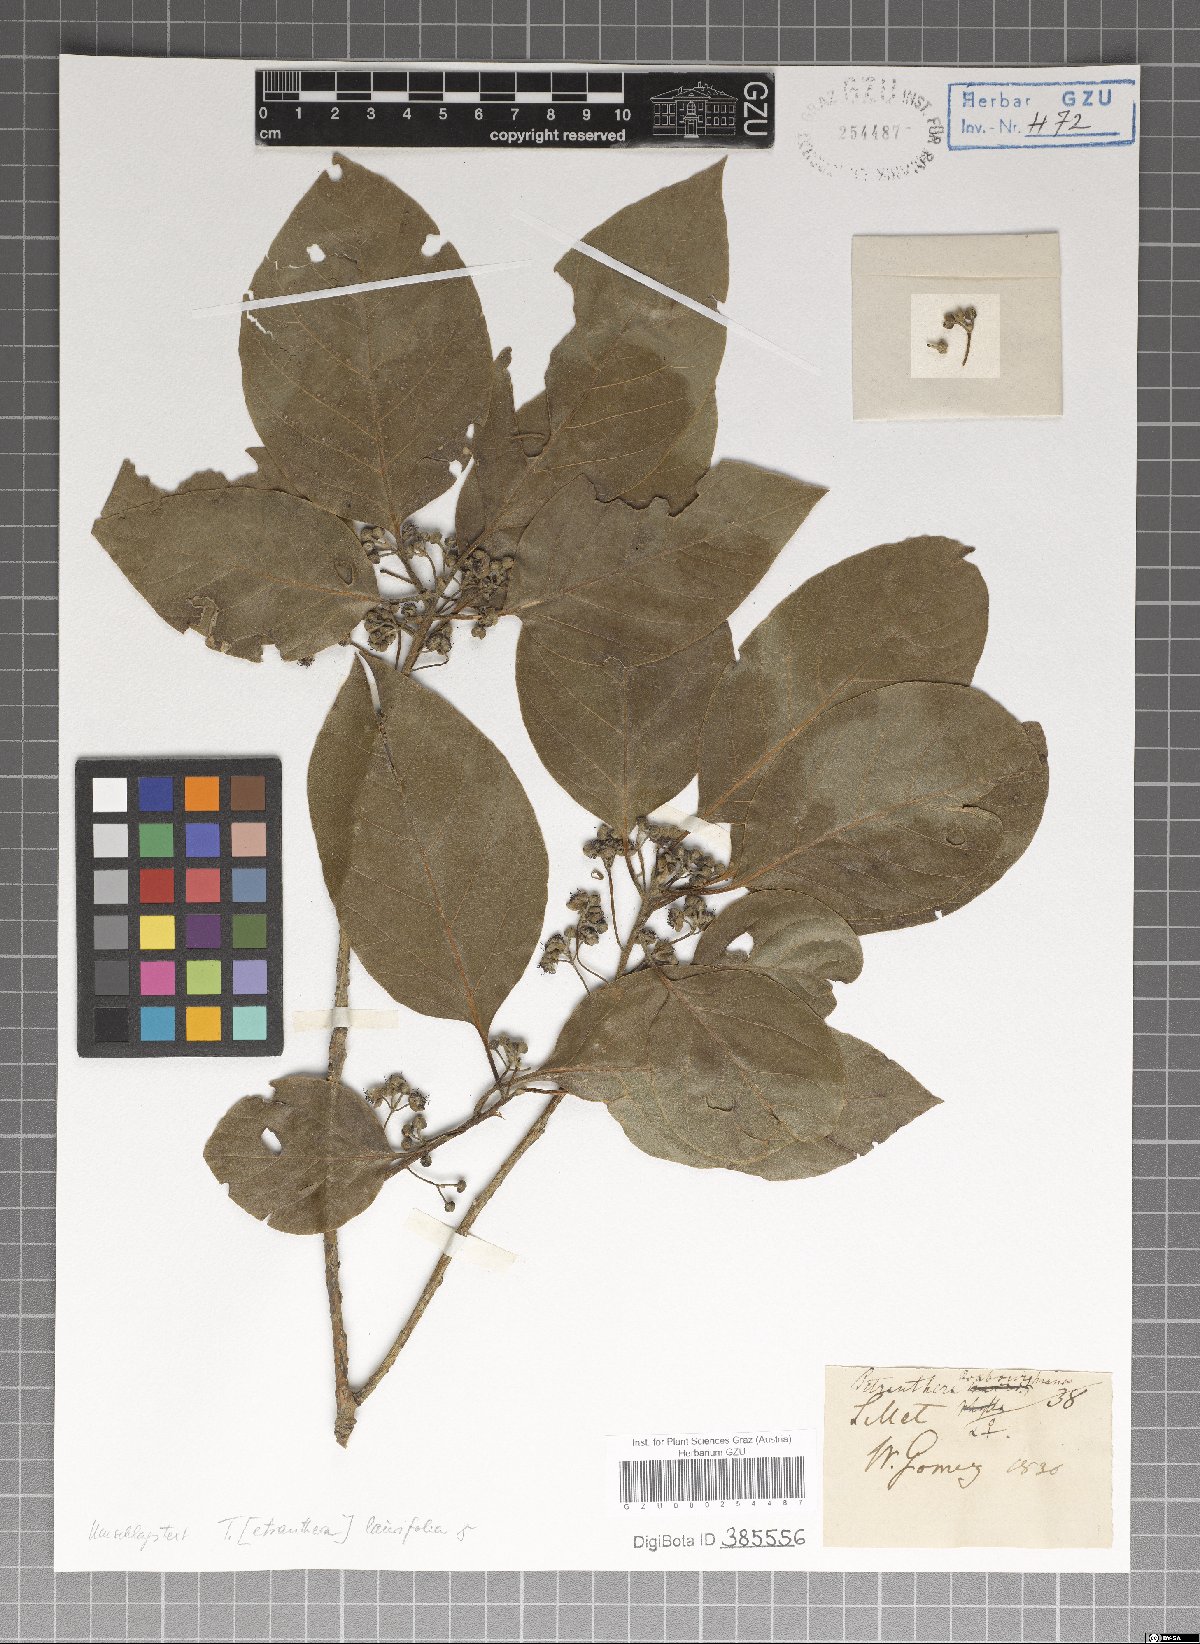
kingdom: Plantae
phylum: Tracheophyta
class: Magnoliopsida
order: Laurales
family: Lauraceae
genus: Litsea
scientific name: Litsea glutinosa
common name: Indian-laurel
